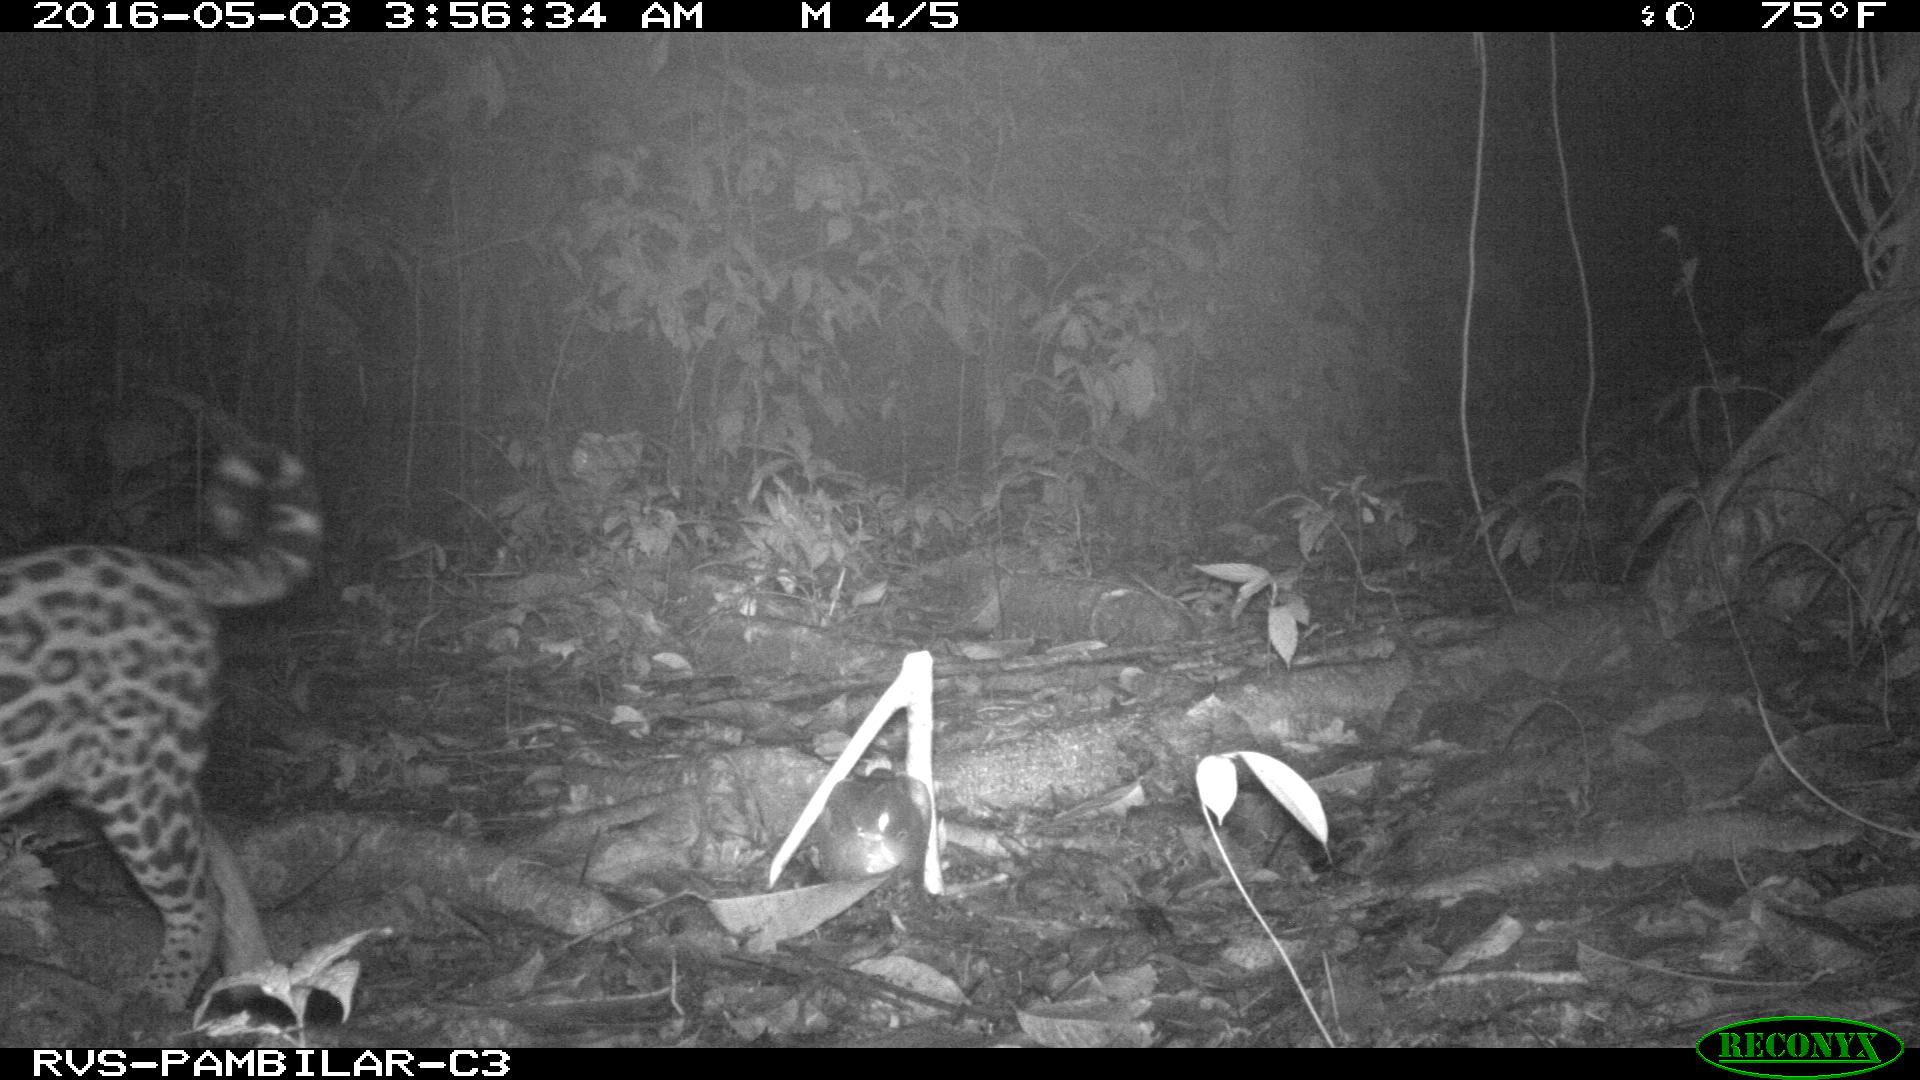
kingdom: Animalia
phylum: Chordata
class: Mammalia
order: Carnivora
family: Felidae
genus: Leopardus
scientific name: Leopardus pardalis
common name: Ocelot
